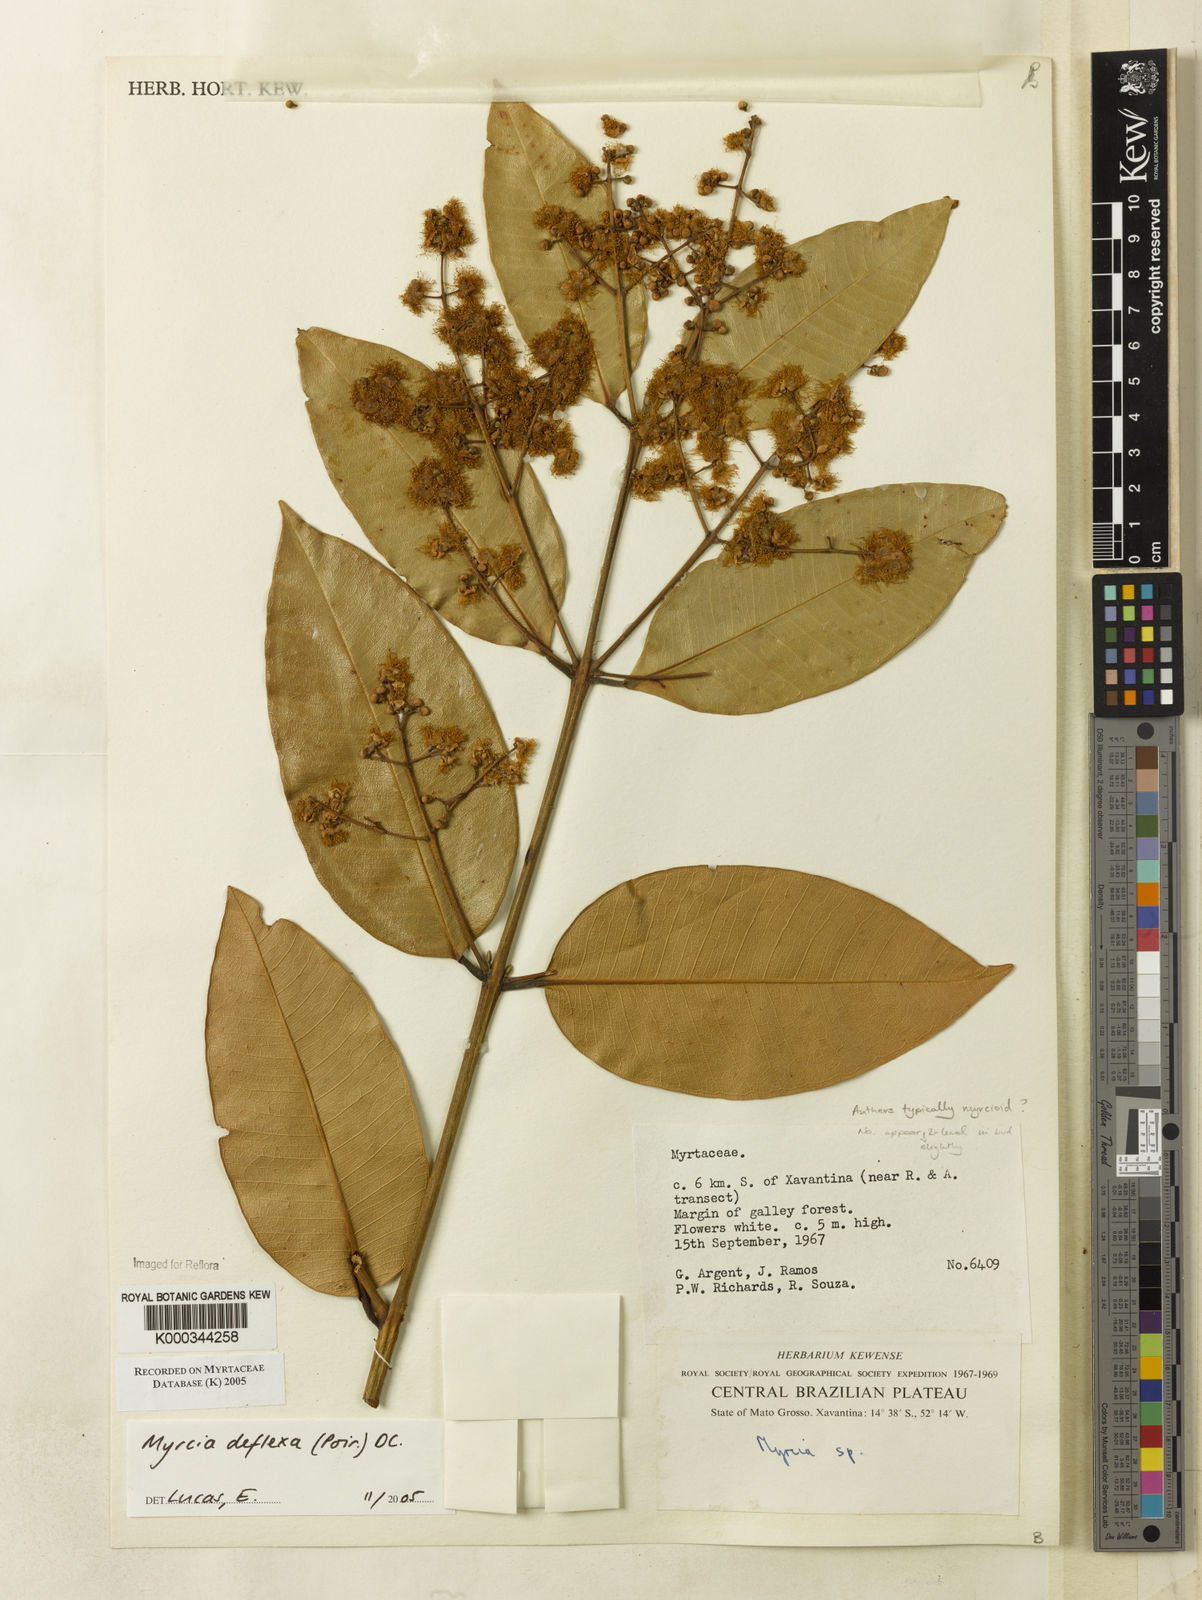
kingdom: Plantae
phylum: Tracheophyta
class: Magnoliopsida
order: Myrtales
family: Myrtaceae
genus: Myrcia
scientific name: Myrcia deflexa
